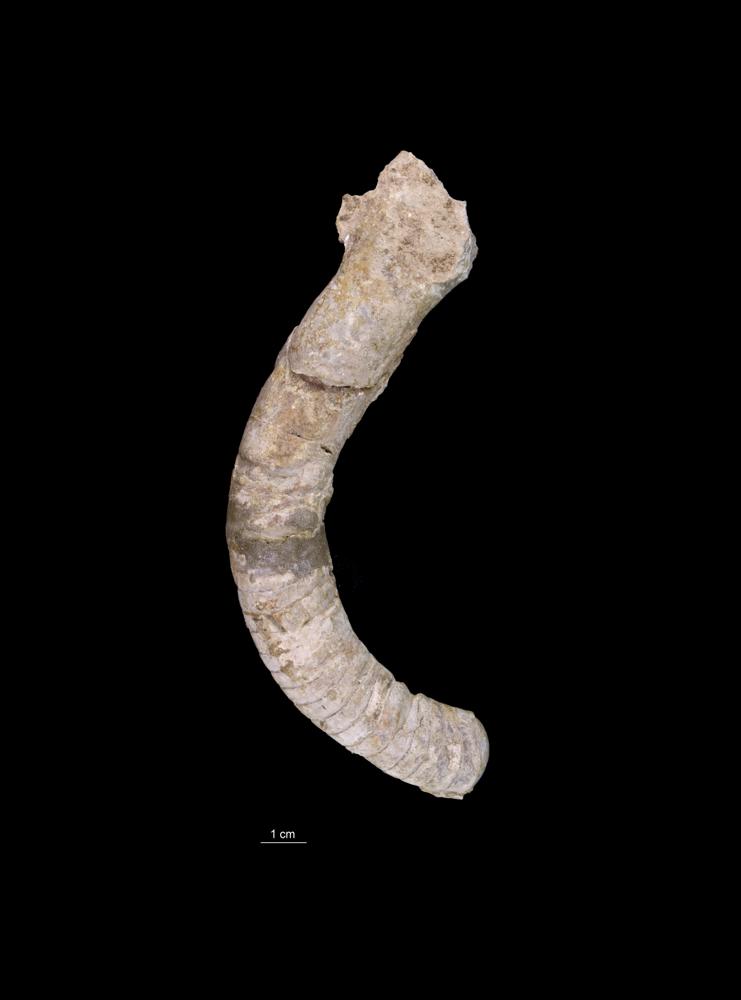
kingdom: Animalia
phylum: Mollusca
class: Cephalopoda
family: Tarphyceratidae
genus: Planctoceras
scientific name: Planctoceras
